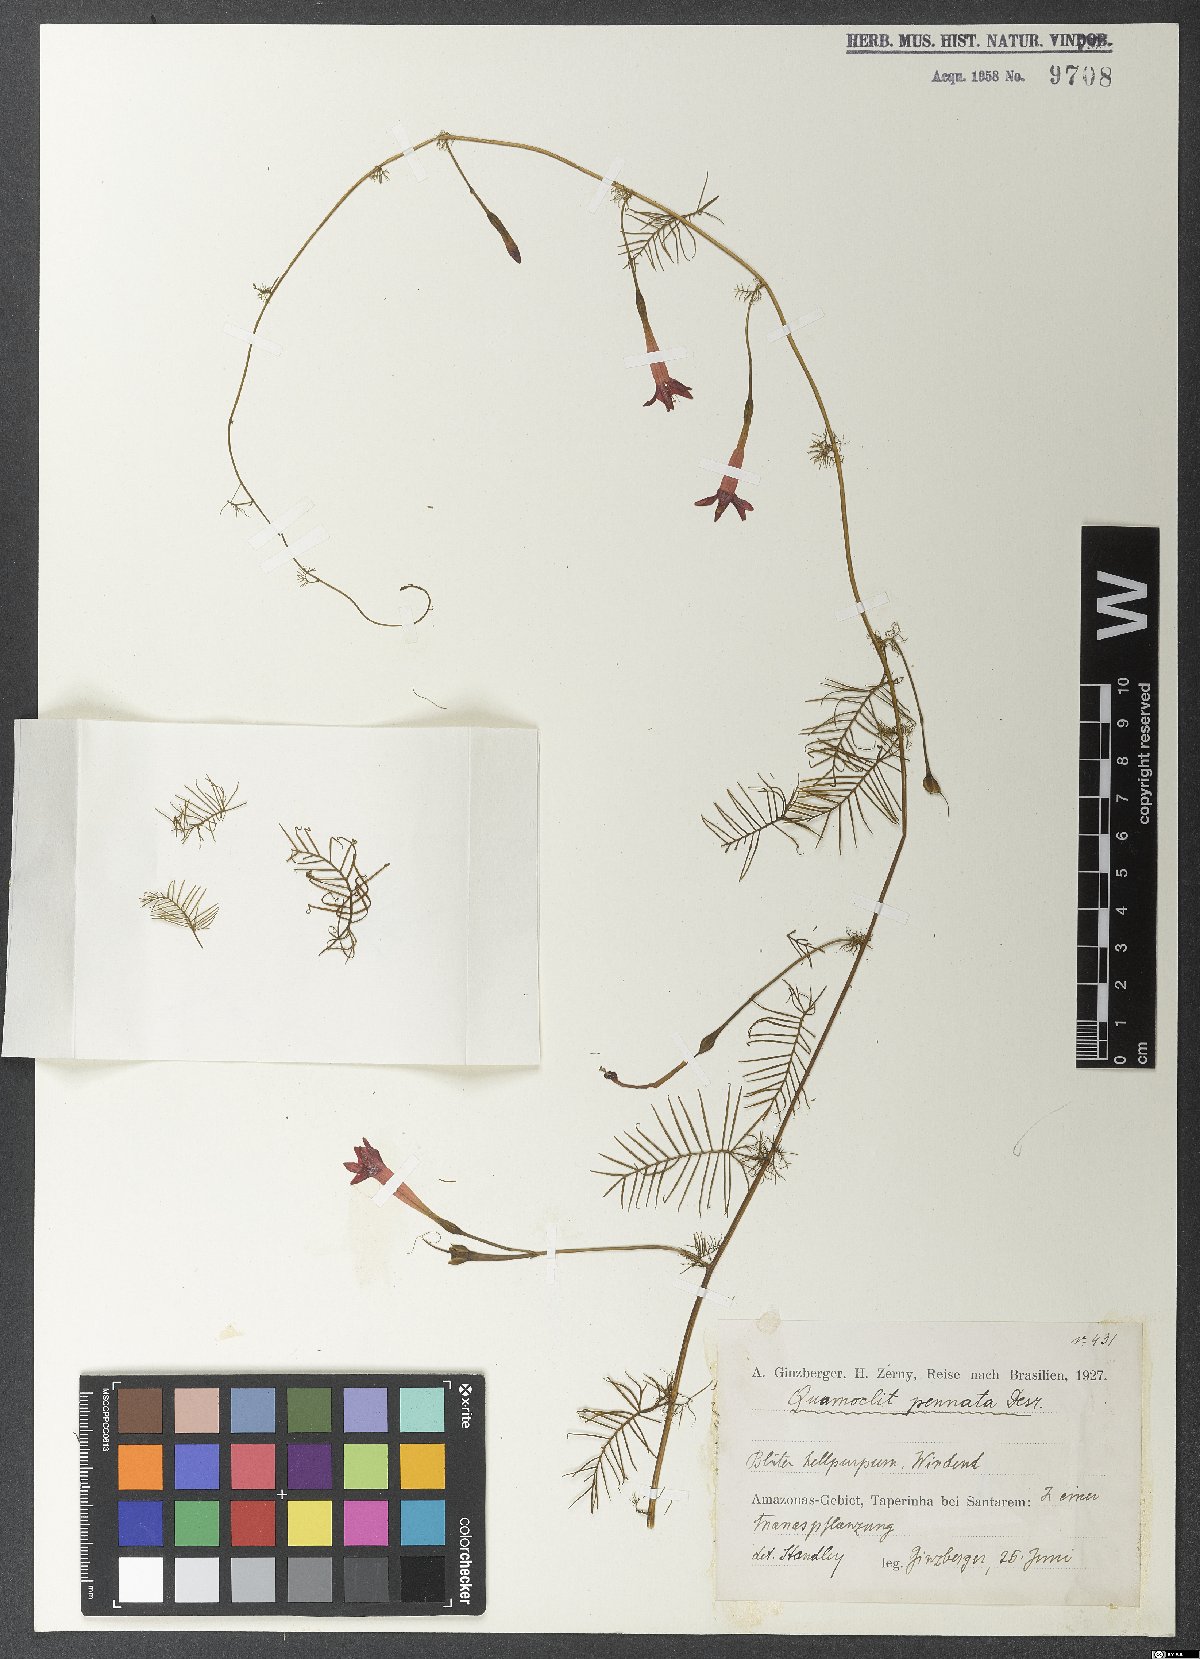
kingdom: Plantae
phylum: Tracheophyta
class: Magnoliopsida
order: Solanales
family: Convolvulaceae
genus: Xenostegia
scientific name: Xenostegia pinnata
